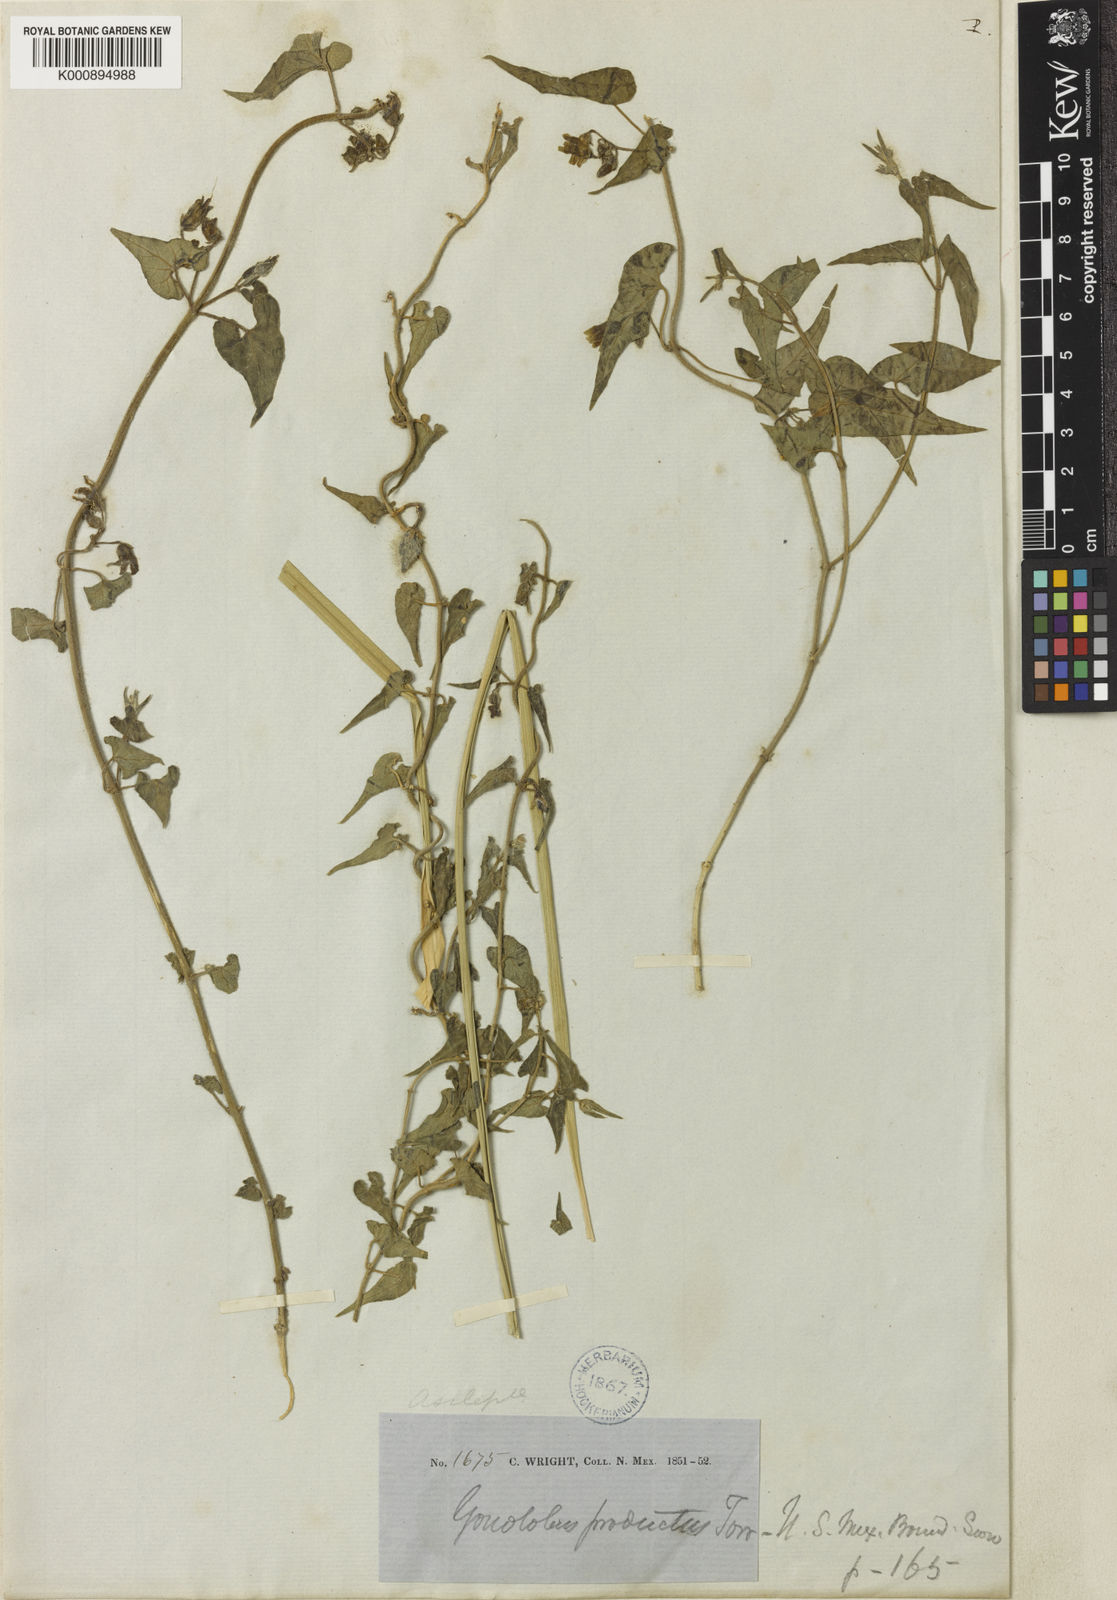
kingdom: Plantae
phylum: Tracheophyta
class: Magnoliopsida
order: Gentianales
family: Apocynaceae
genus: Chthamalia
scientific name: Chthamalia
